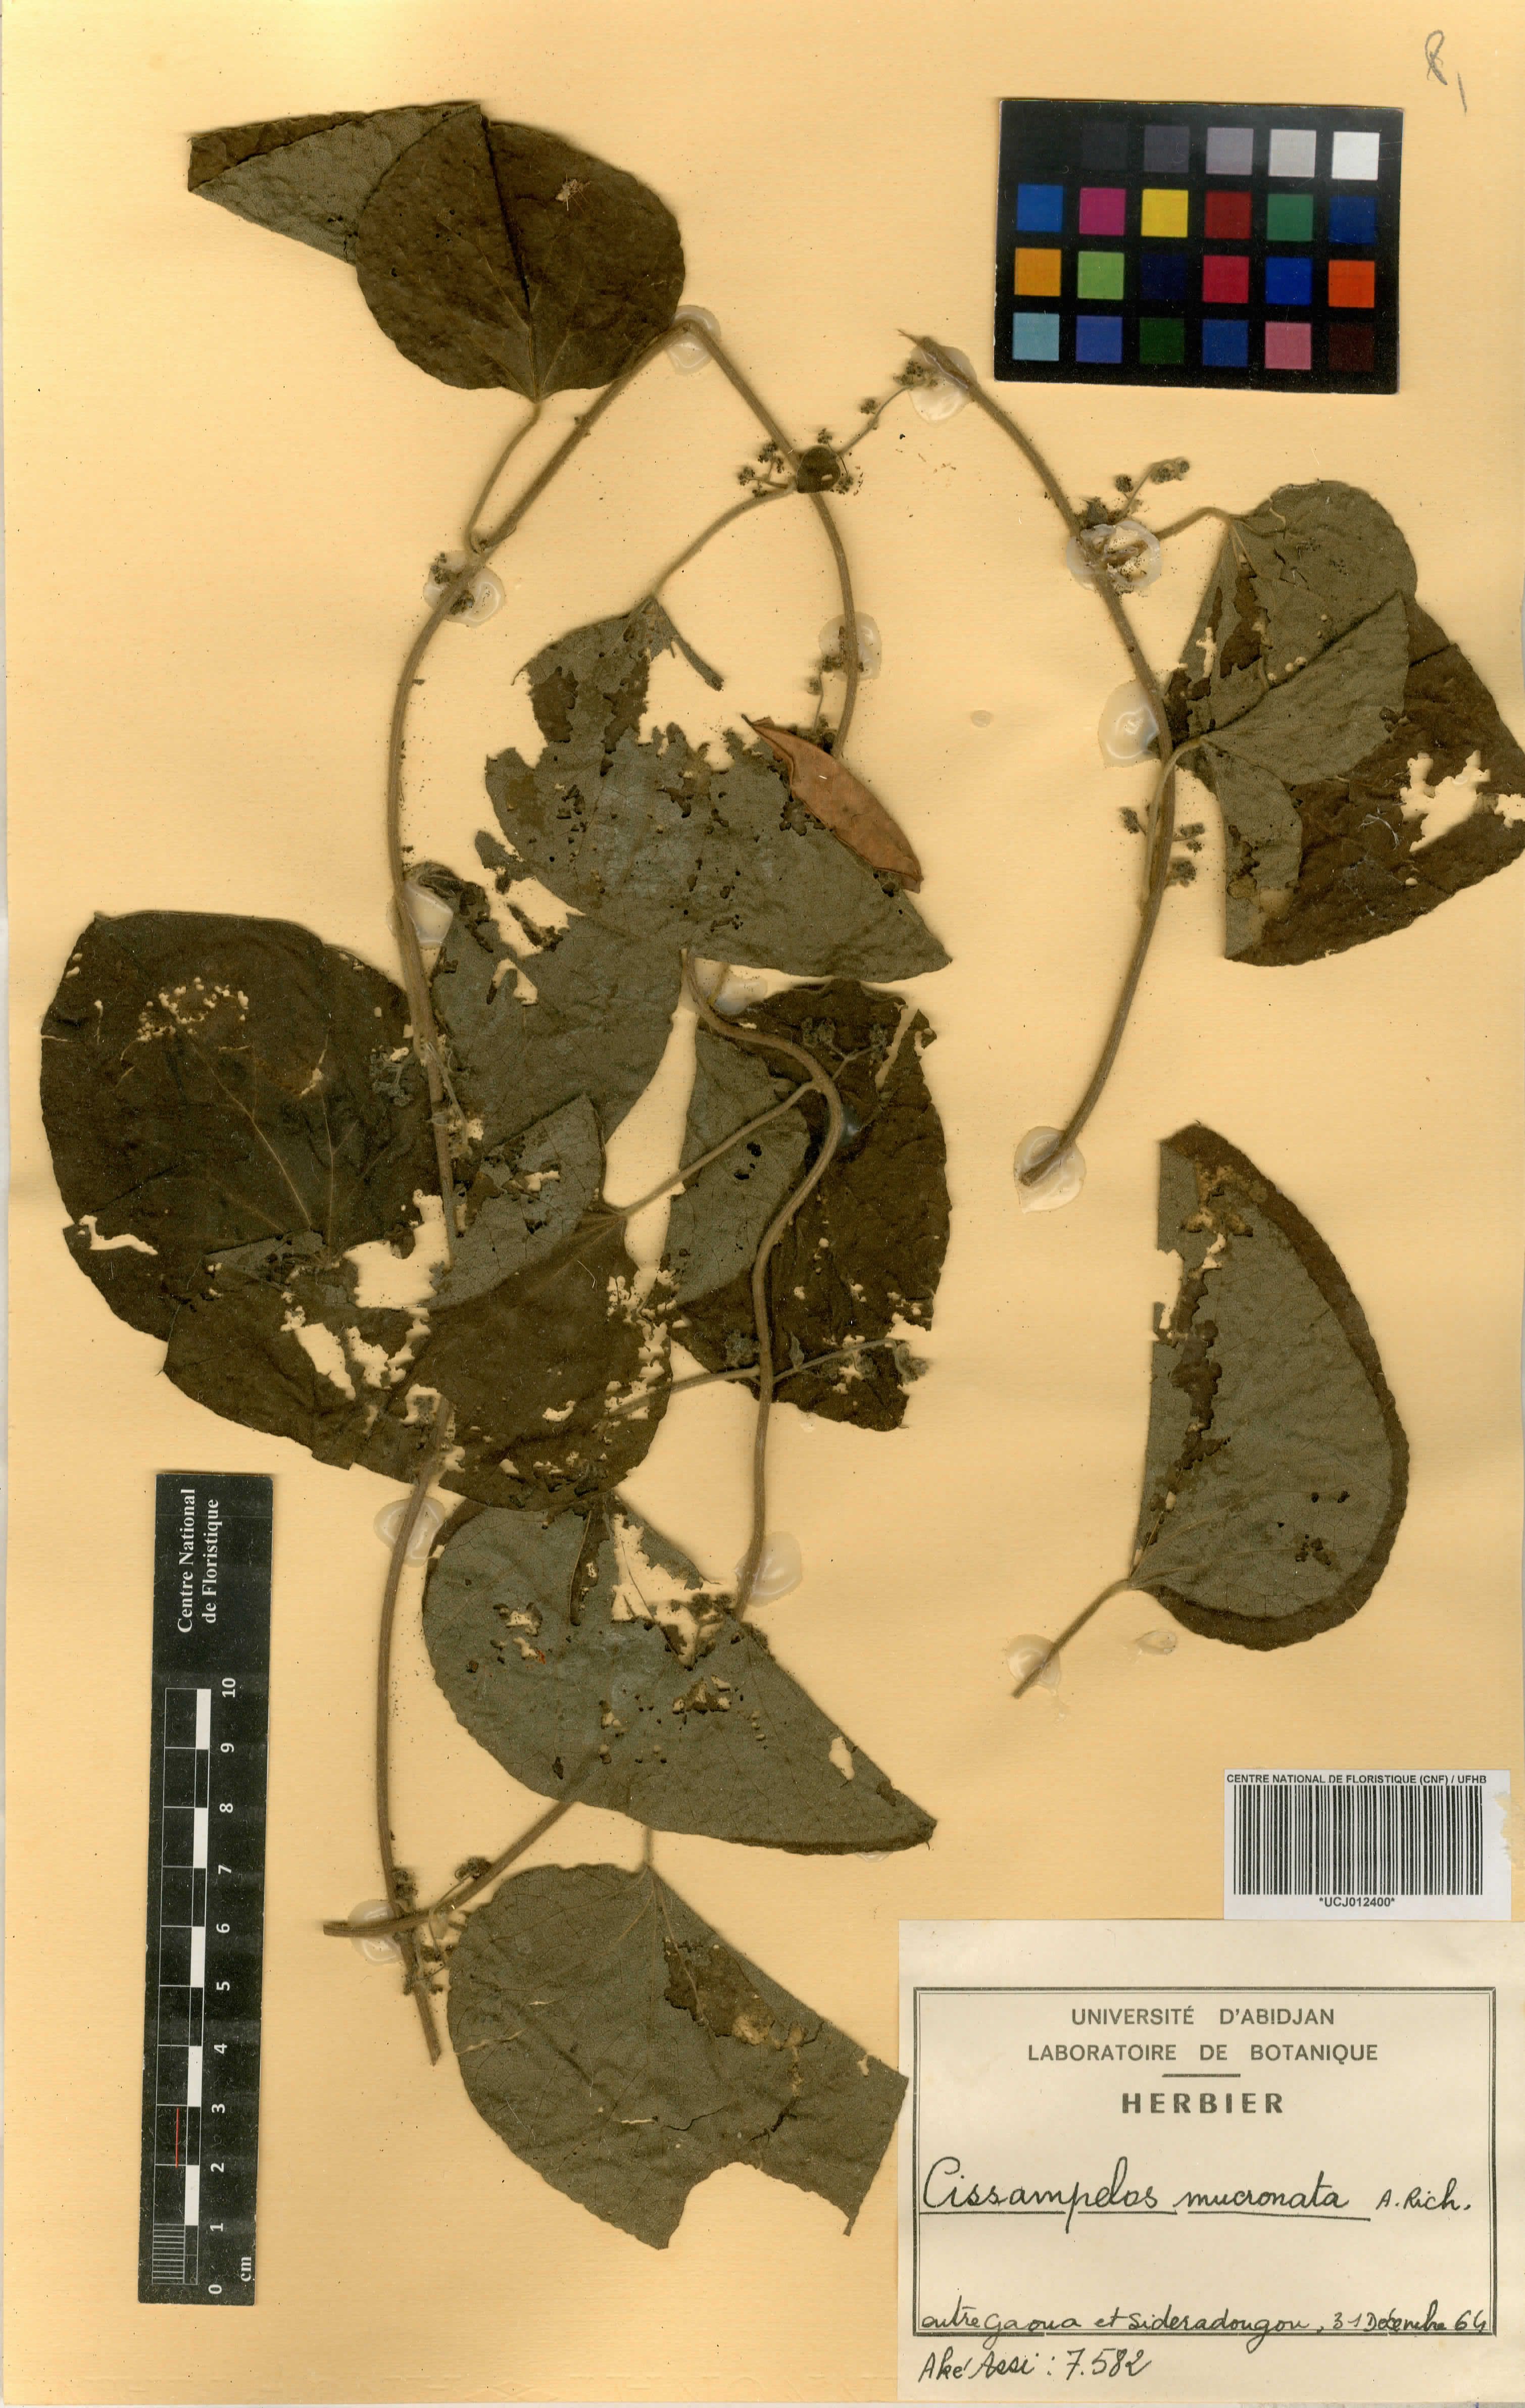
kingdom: Plantae
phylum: Tracheophyta
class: Magnoliopsida
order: Ranunculales
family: Menispermaceae
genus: Cissampelos
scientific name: Cissampelos mucronata
